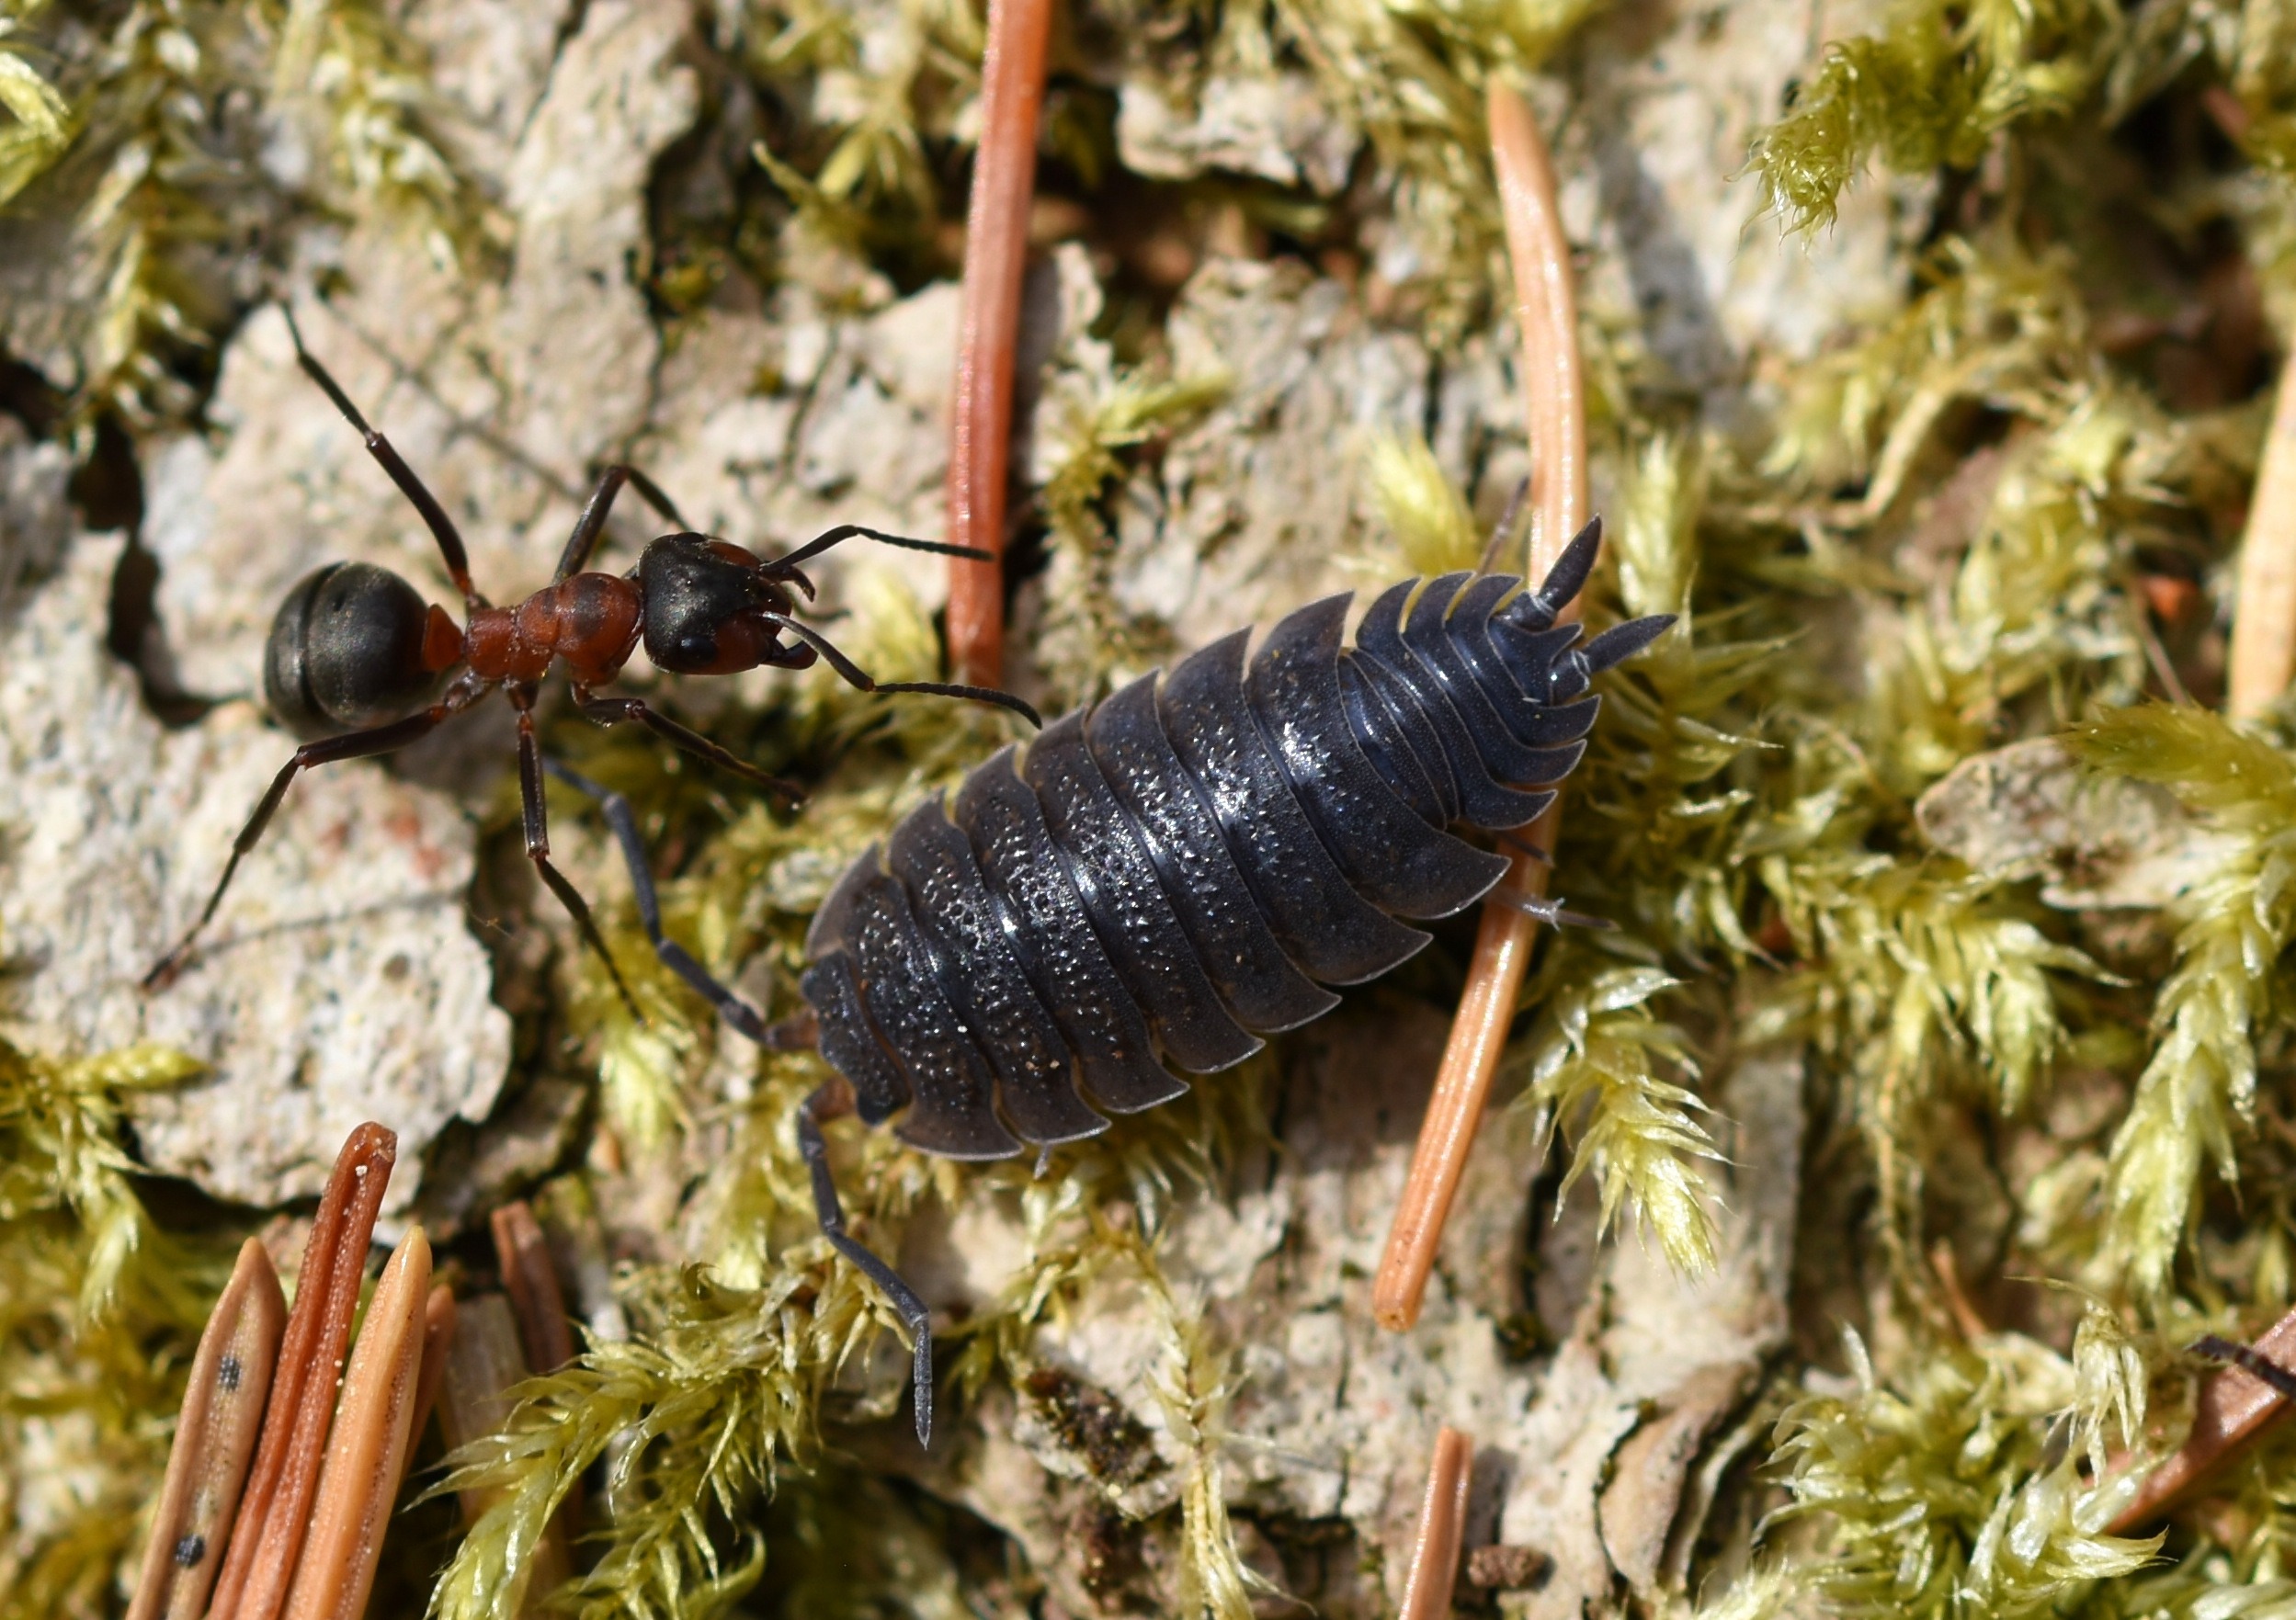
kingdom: Animalia
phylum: Arthropoda
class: Malacostraca
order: Isopoda
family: Porcellionidae
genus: Porcellio
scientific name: Porcellio scaber
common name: Grå bænkebider
